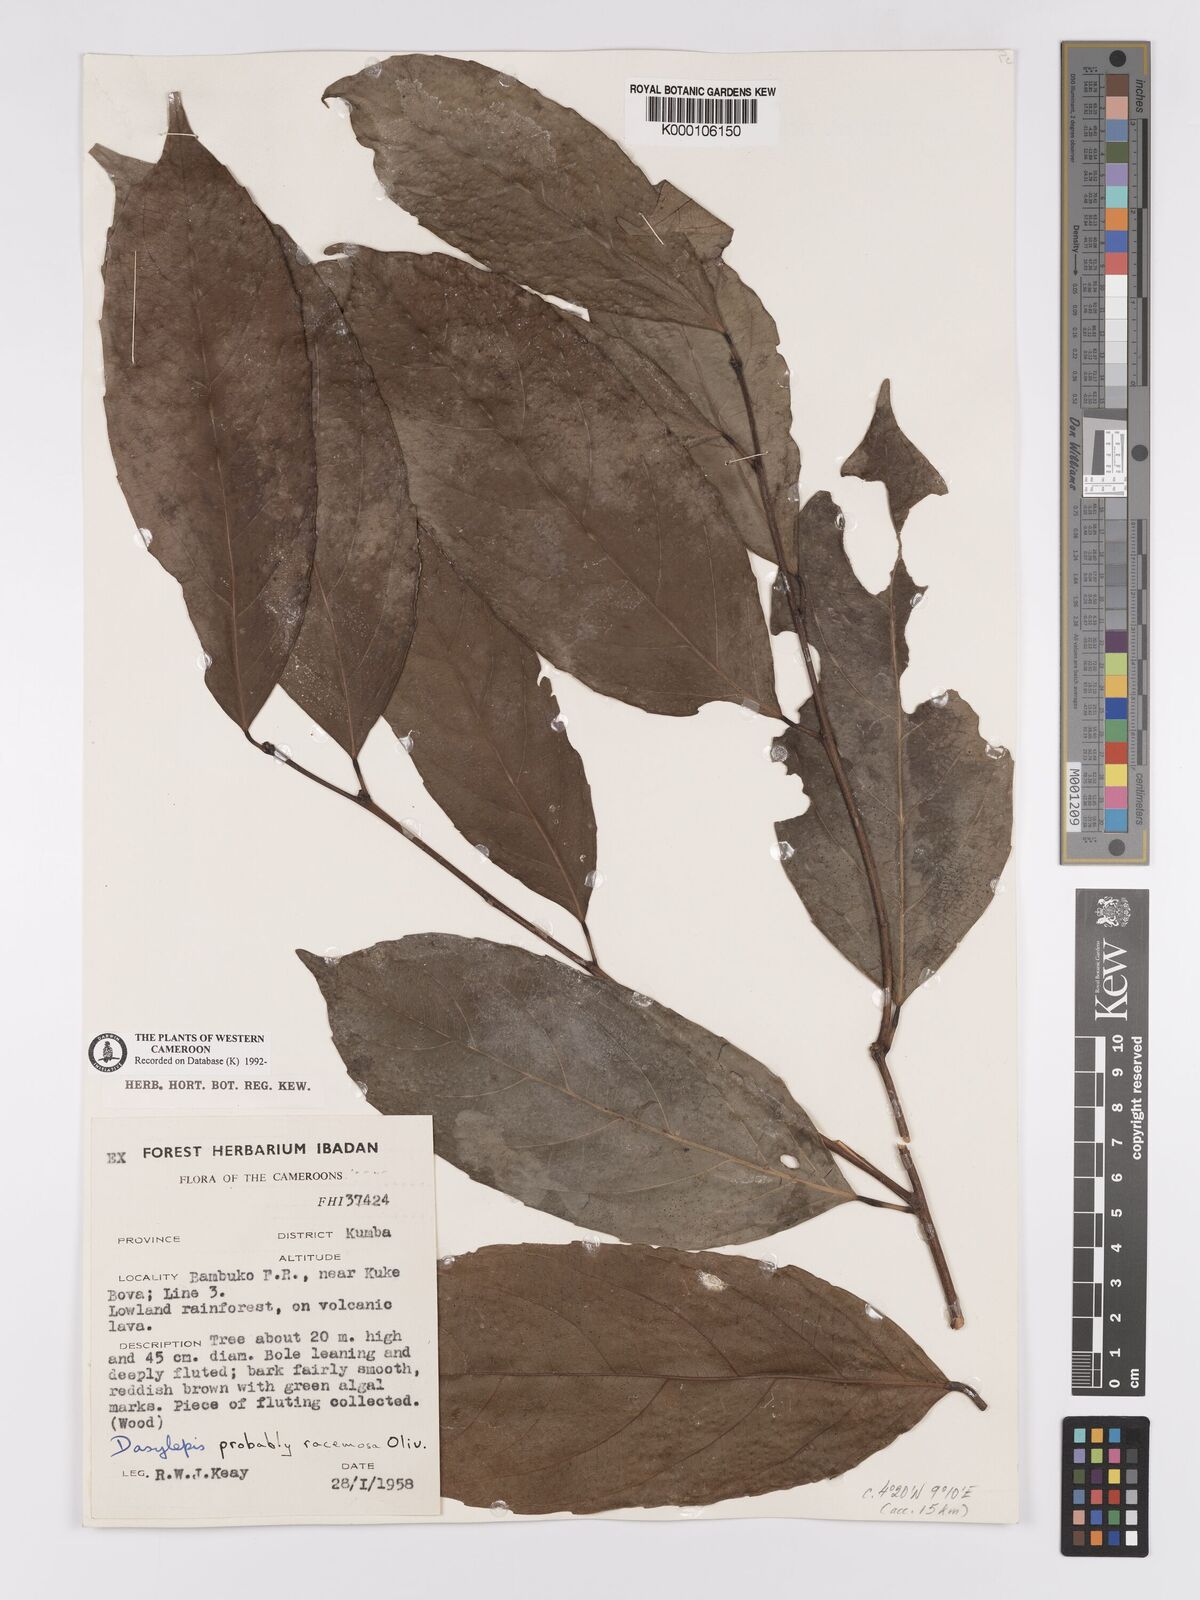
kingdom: Plantae
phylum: Tracheophyta
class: Magnoliopsida
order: Malpighiales
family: Achariaceae
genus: Dasylepis
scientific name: Dasylepis racemosa
